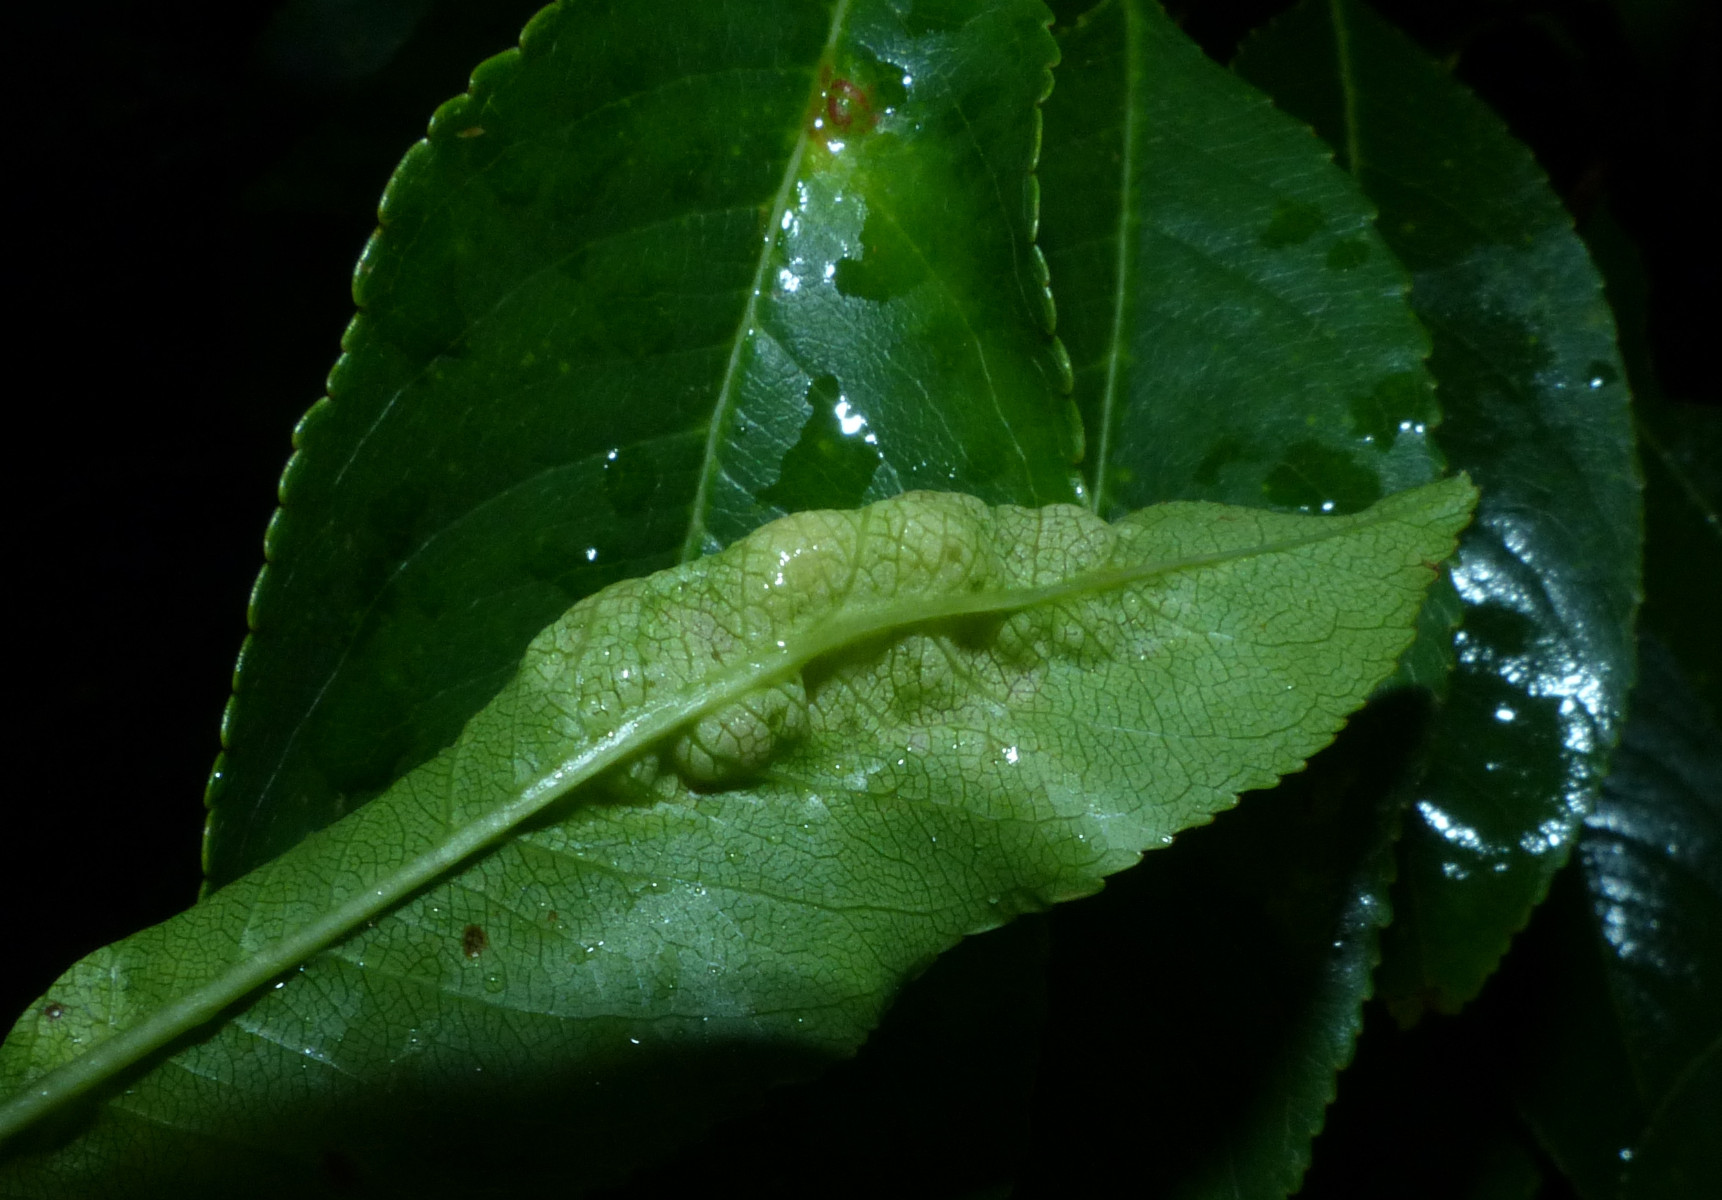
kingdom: Fungi
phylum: Ascomycota
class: Taphrinomycetes
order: Taphrinales
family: Taphrinaceae
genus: Taphrina
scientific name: Taphrina farlowii
